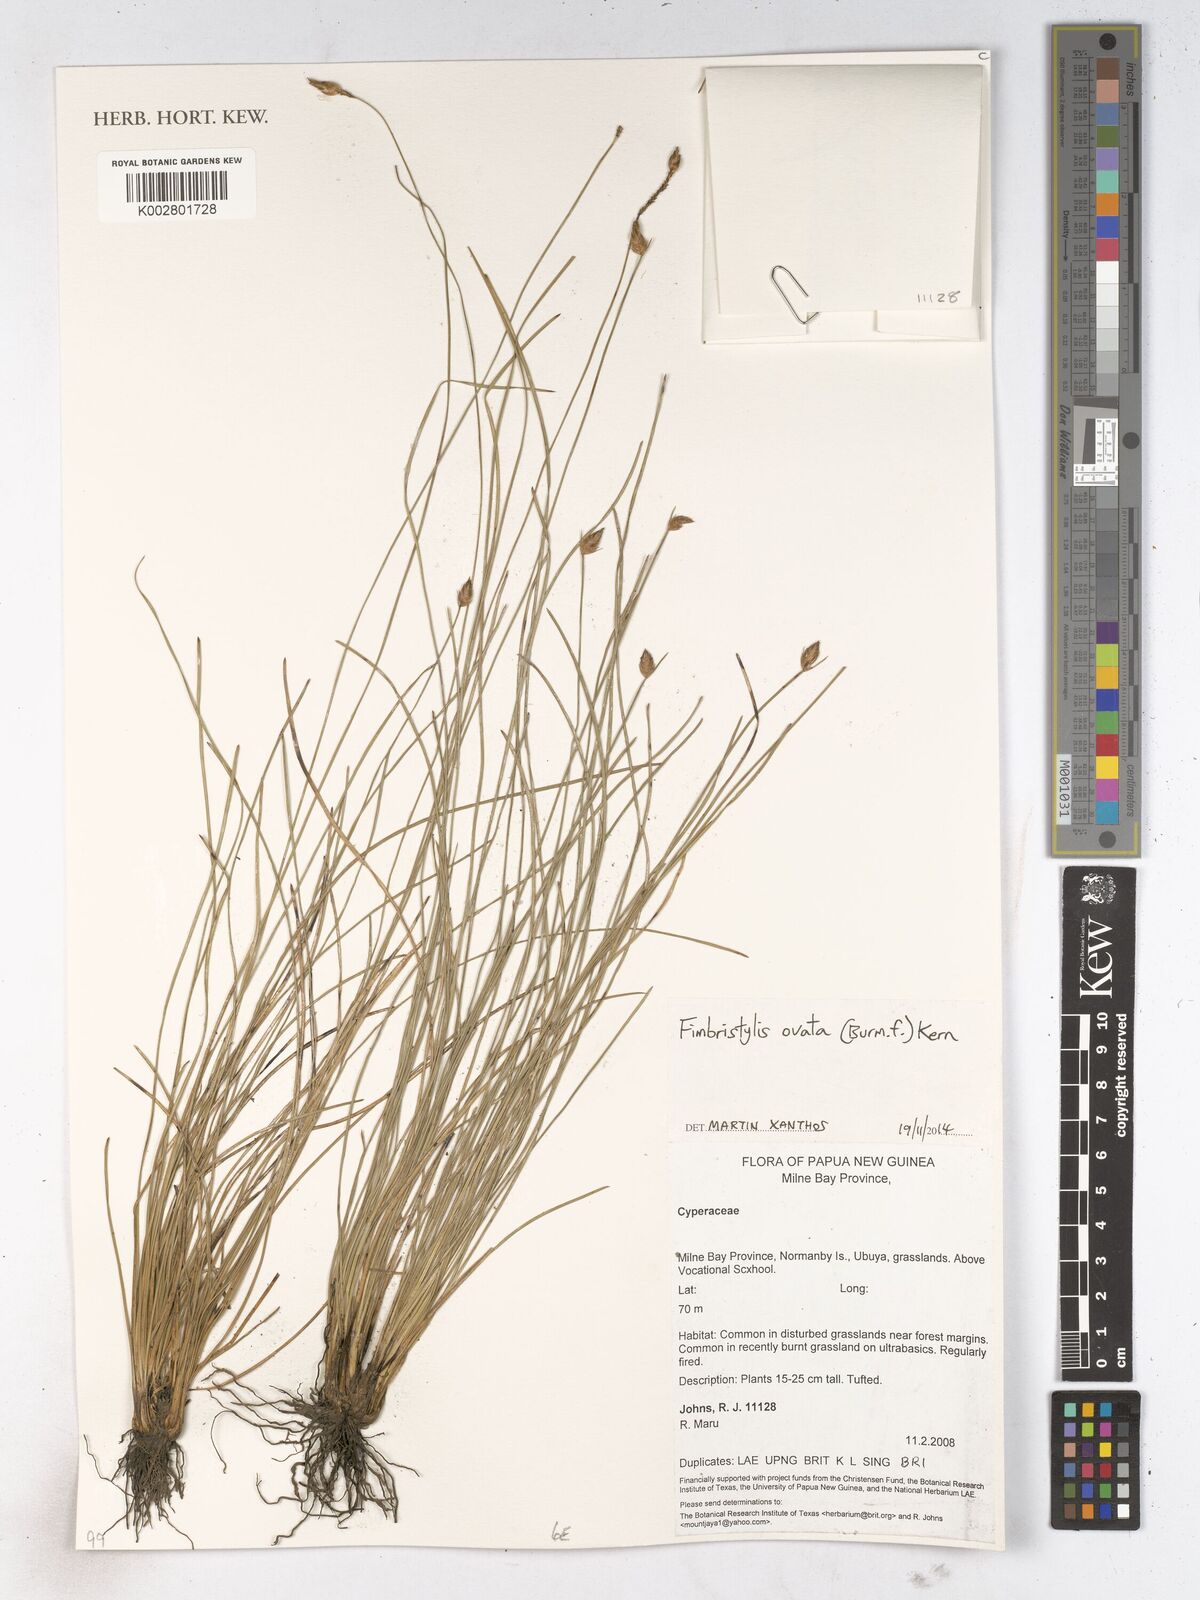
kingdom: Plantae
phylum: Tracheophyta
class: Liliopsida
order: Poales
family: Cyperaceae
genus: Abildgaardia
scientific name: Abildgaardia ovata
